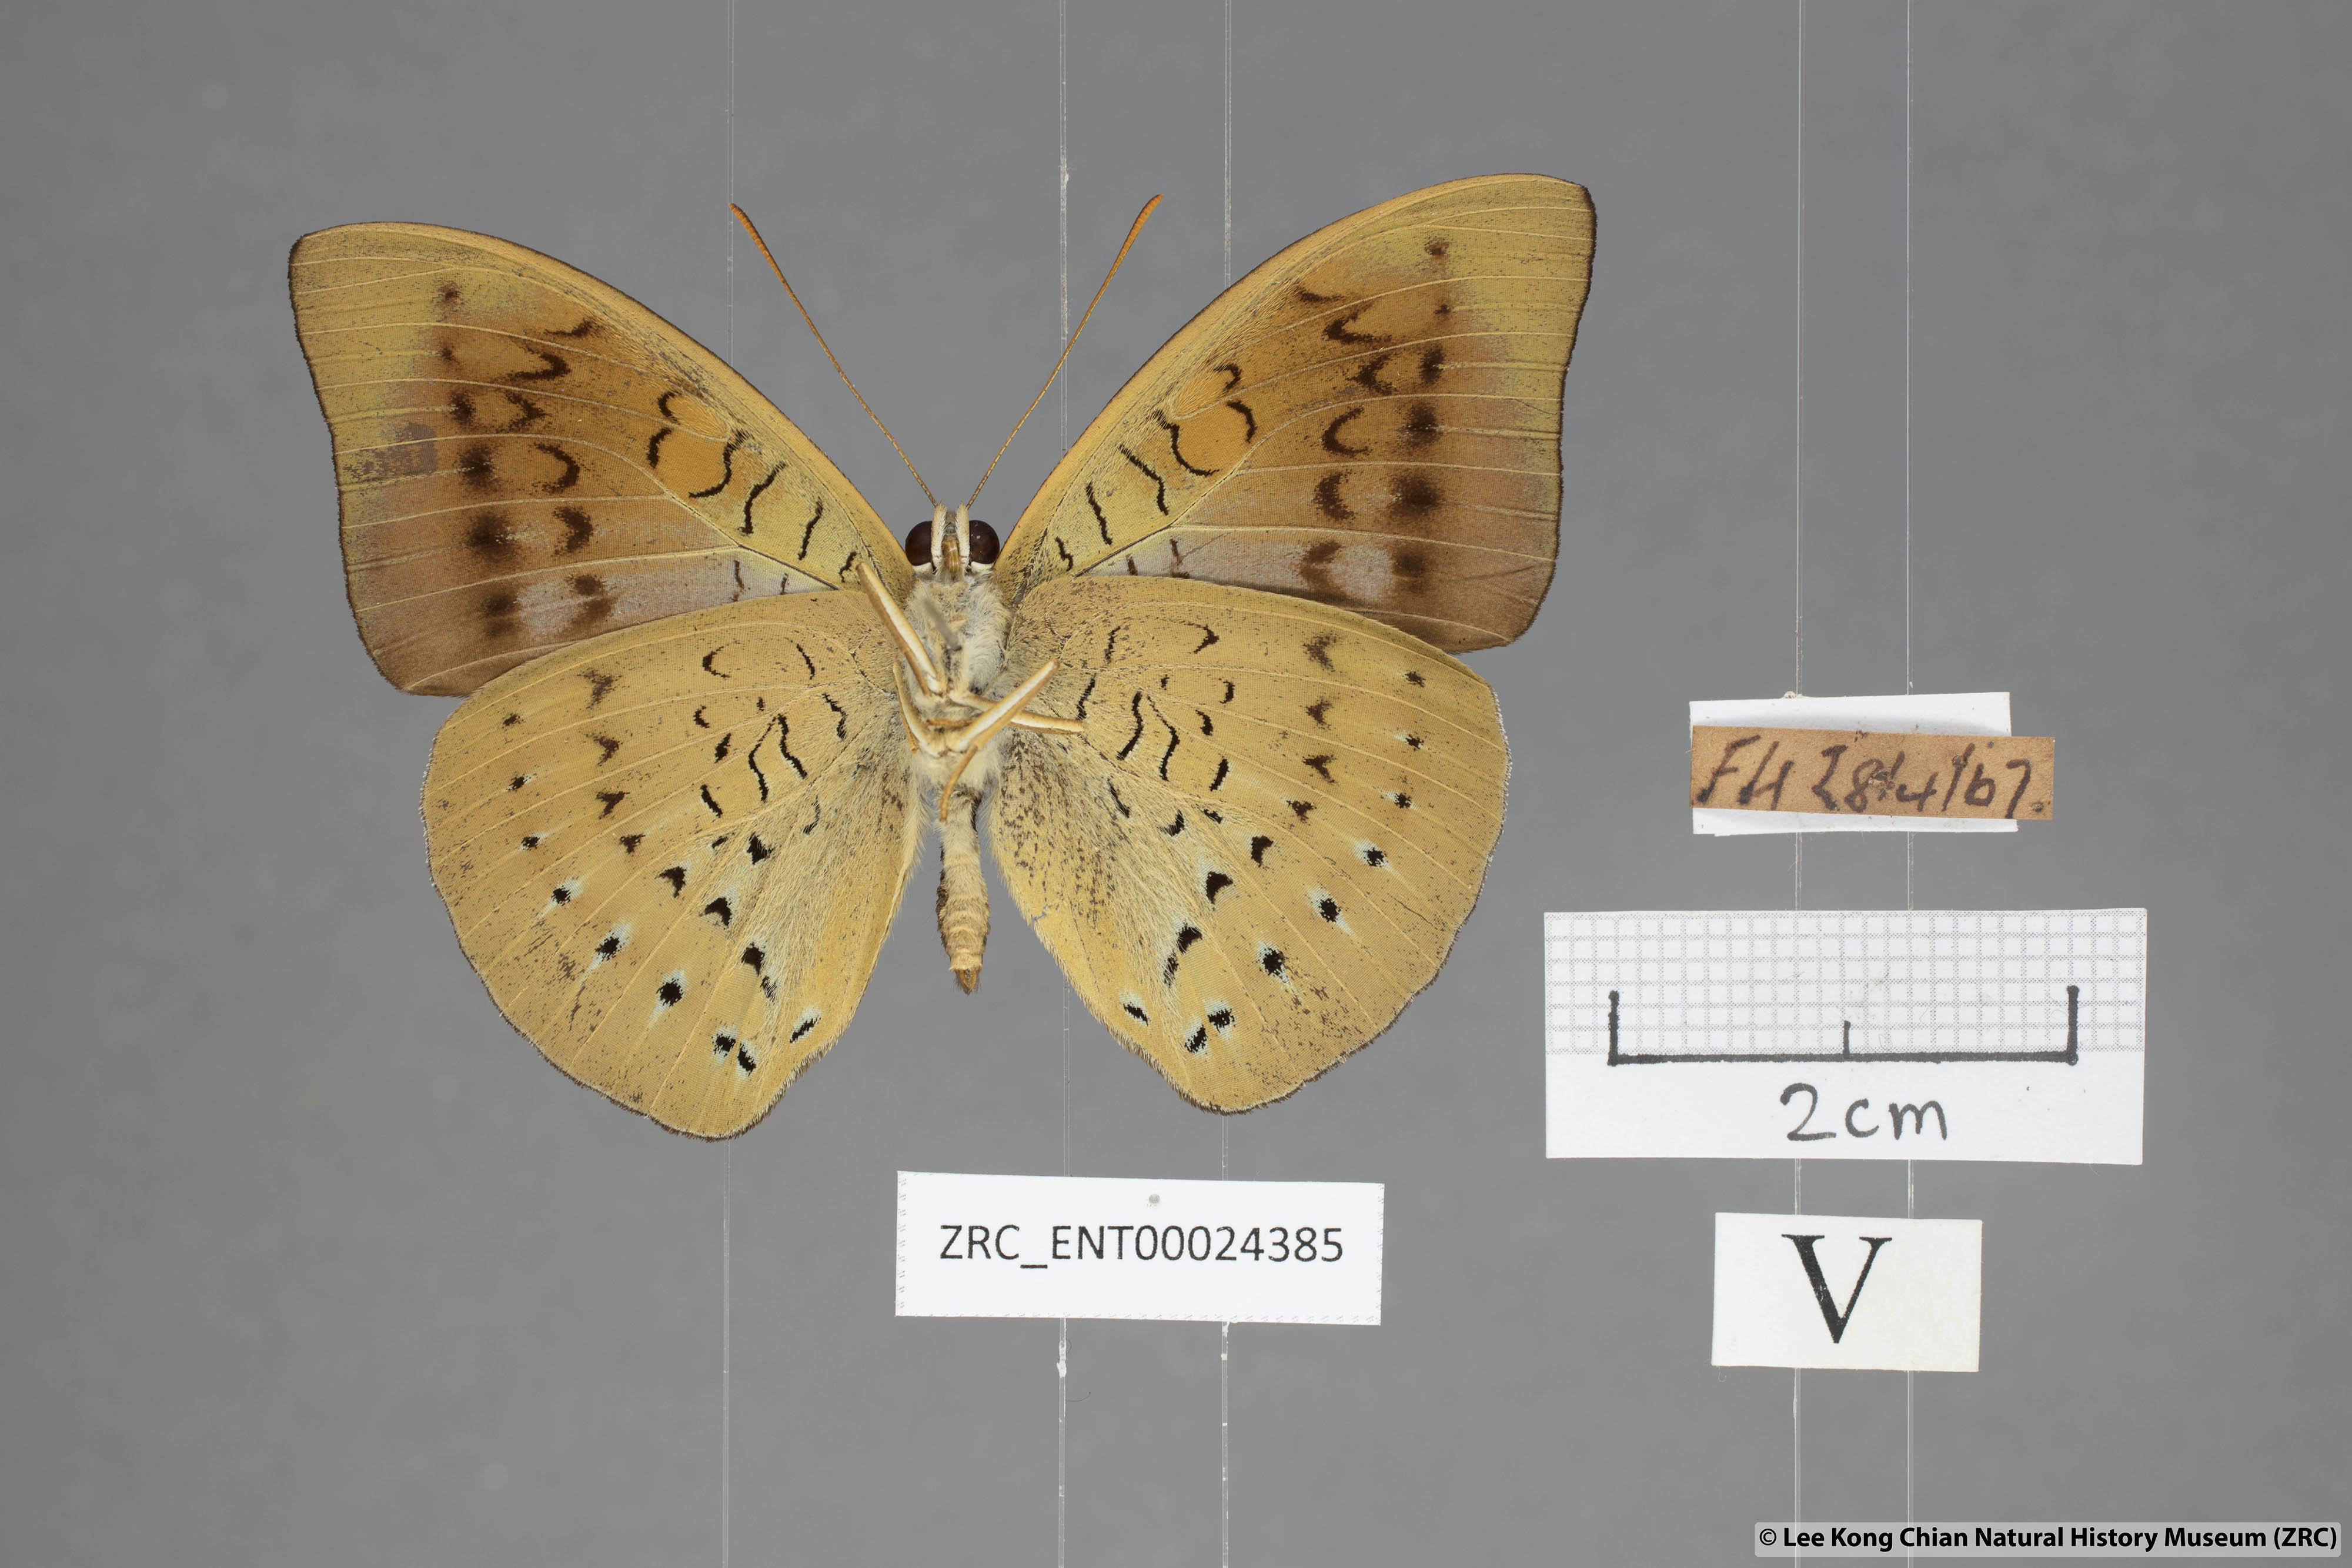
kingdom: Animalia
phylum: Arthropoda
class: Insecta
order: Lepidoptera
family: Nymphalidae
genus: Tanaecia
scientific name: Tanaecia julii
